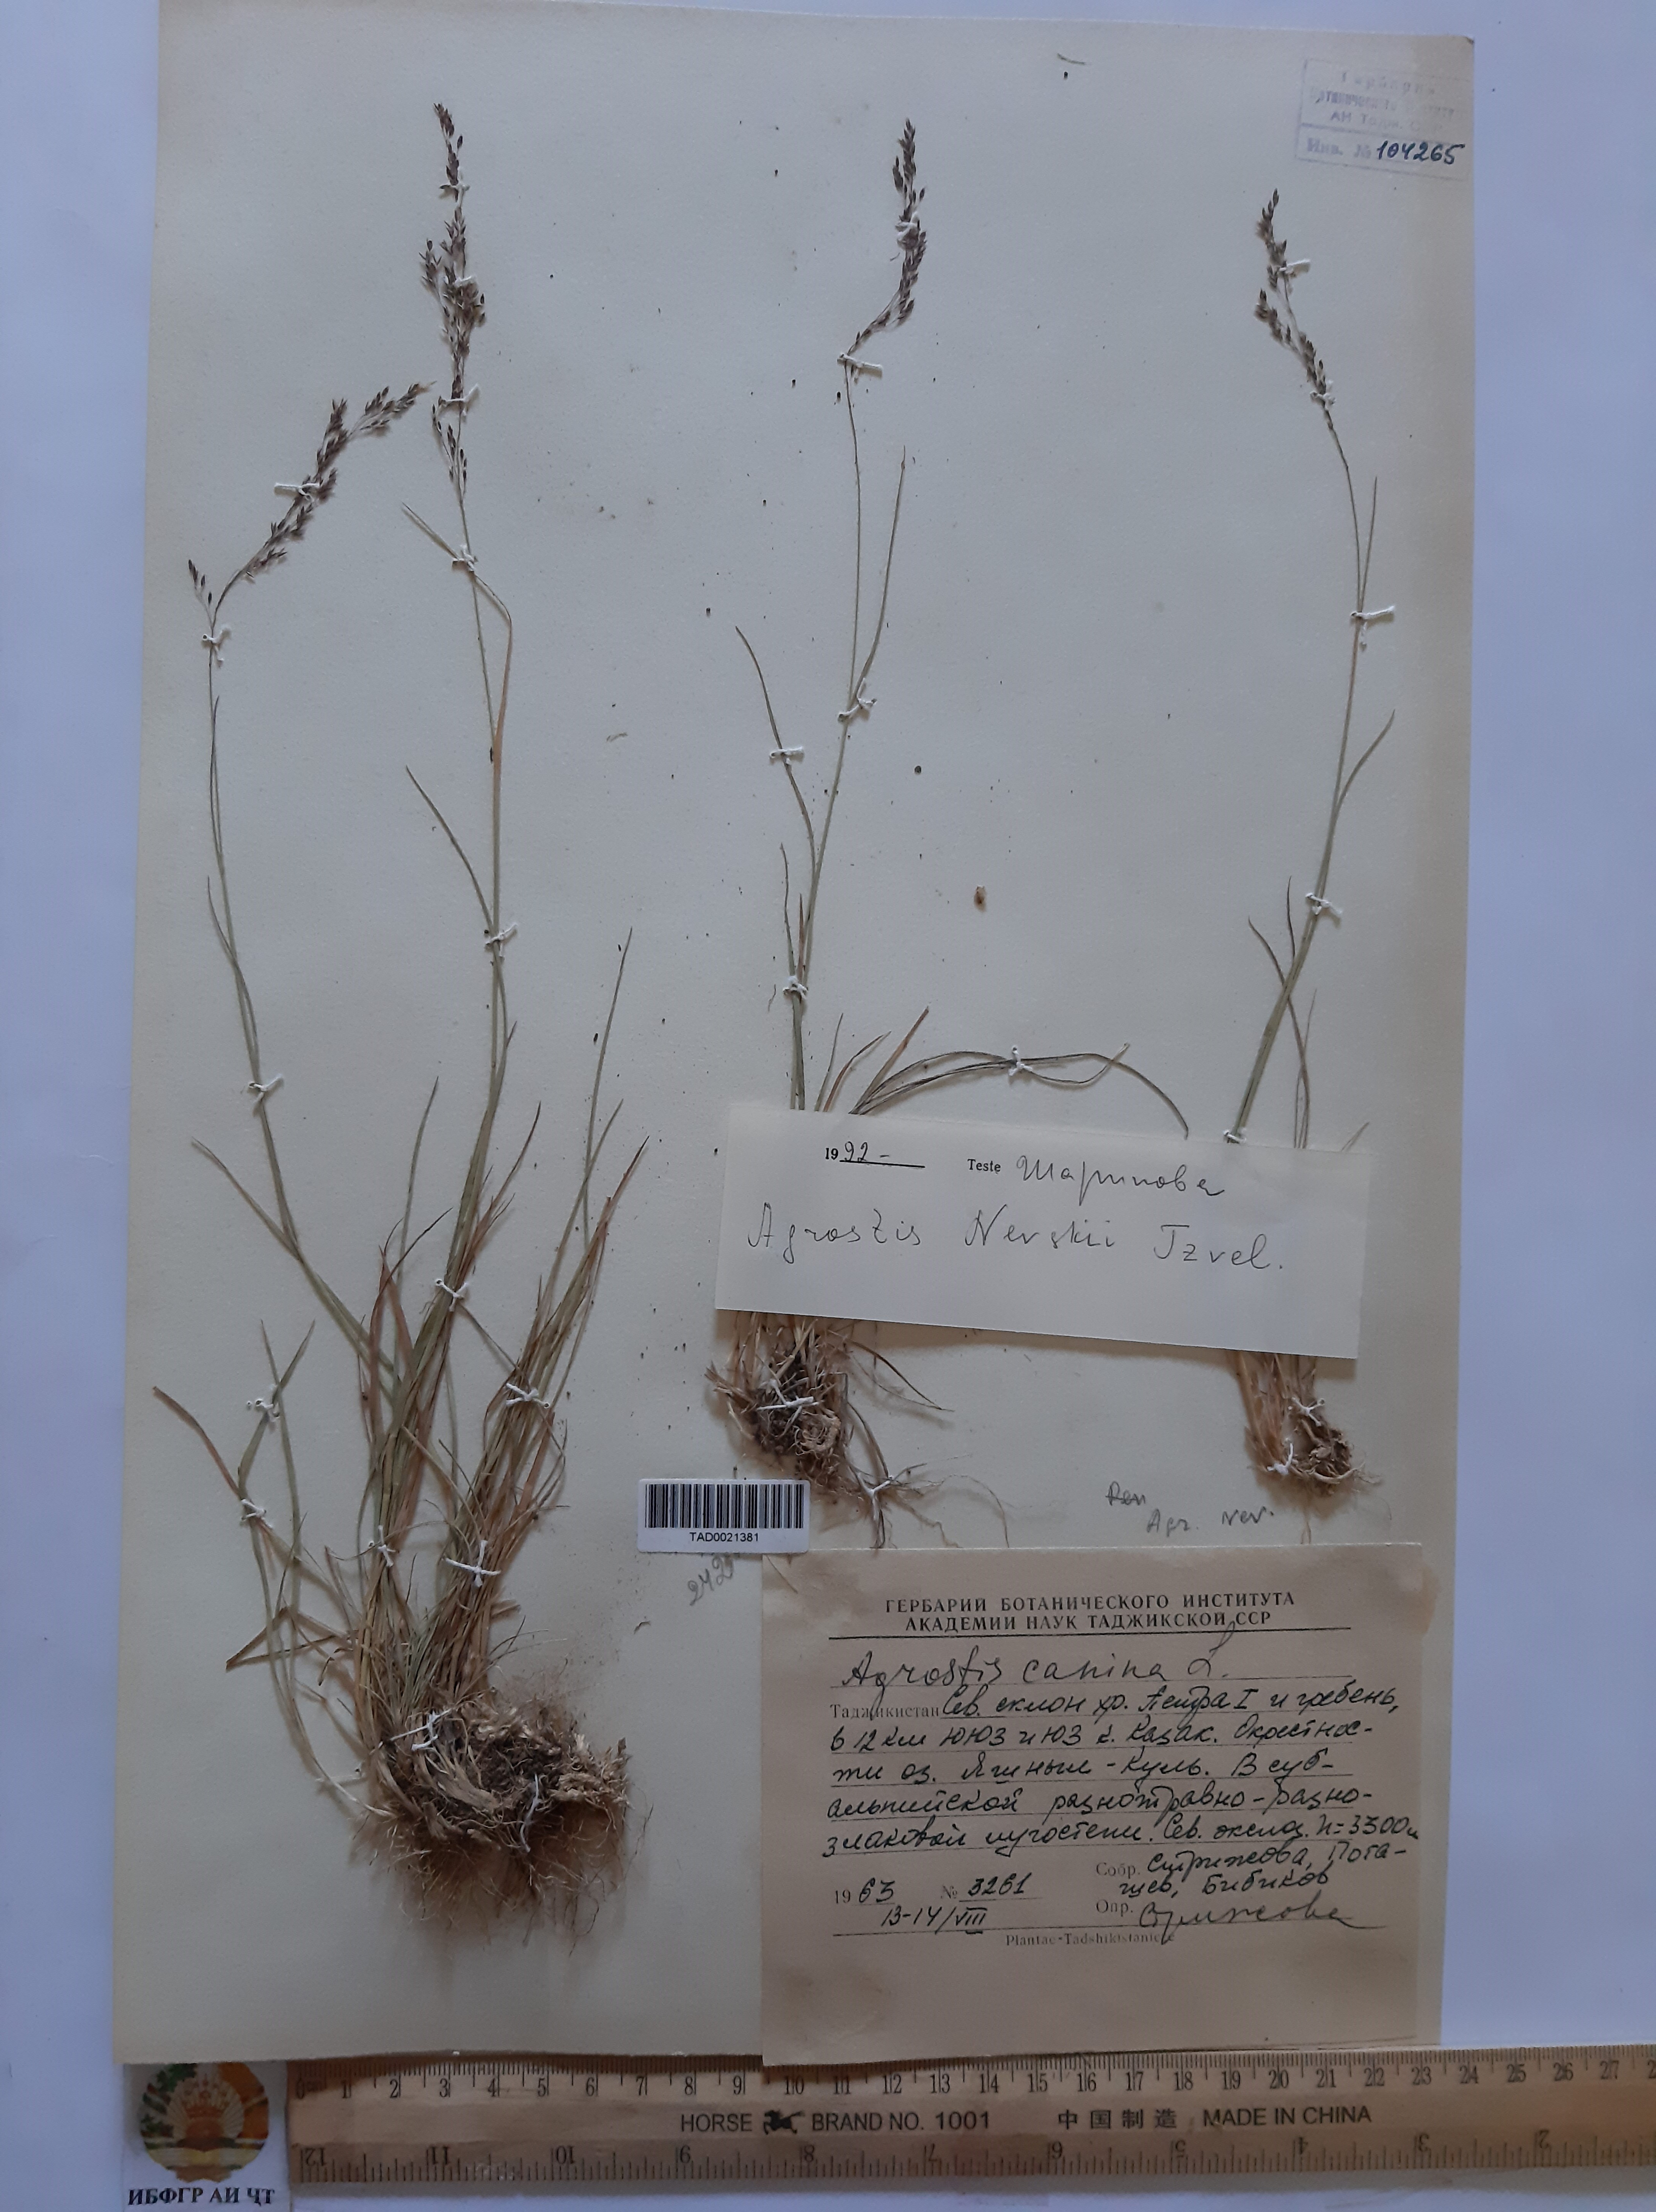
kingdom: Plantae
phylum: Tracheophyta
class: Liliopsida
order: Poales
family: Poaceae
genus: Agrostis
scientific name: Agrostis canina
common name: Velvet bent
